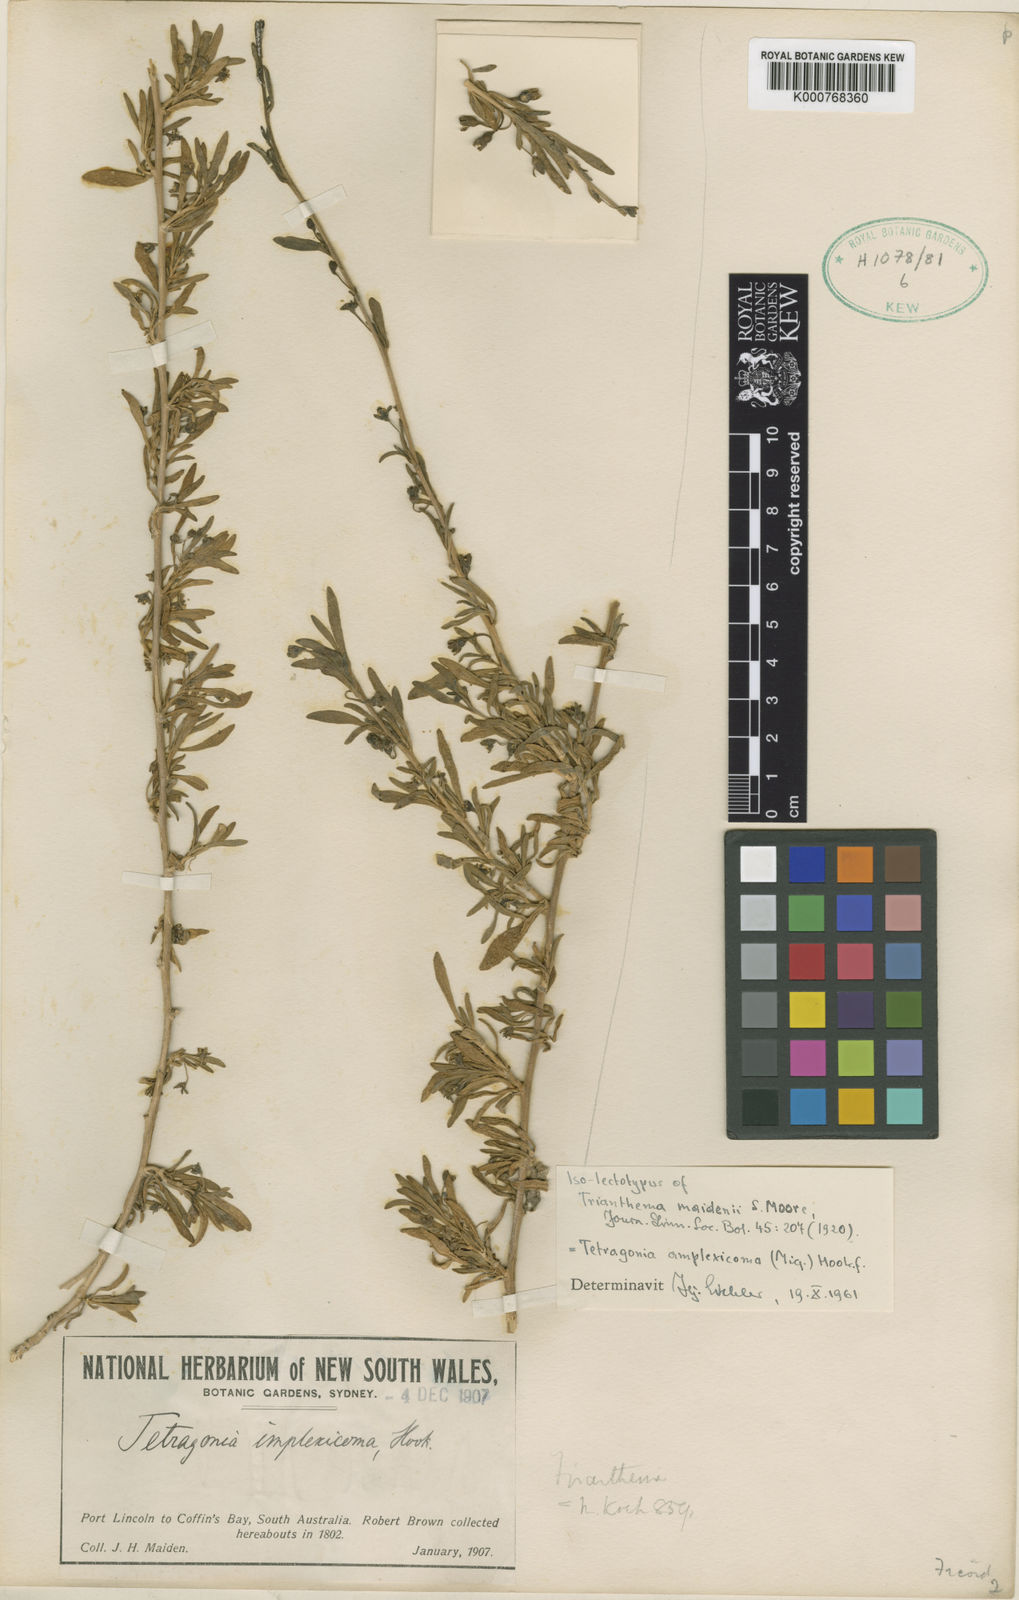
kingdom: Plantae
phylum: Tracheophyta
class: Magnoliopsida
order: Caryophyllales
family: Aizoaceae
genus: Tetragonia
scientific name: Tetragonia implexicoma
